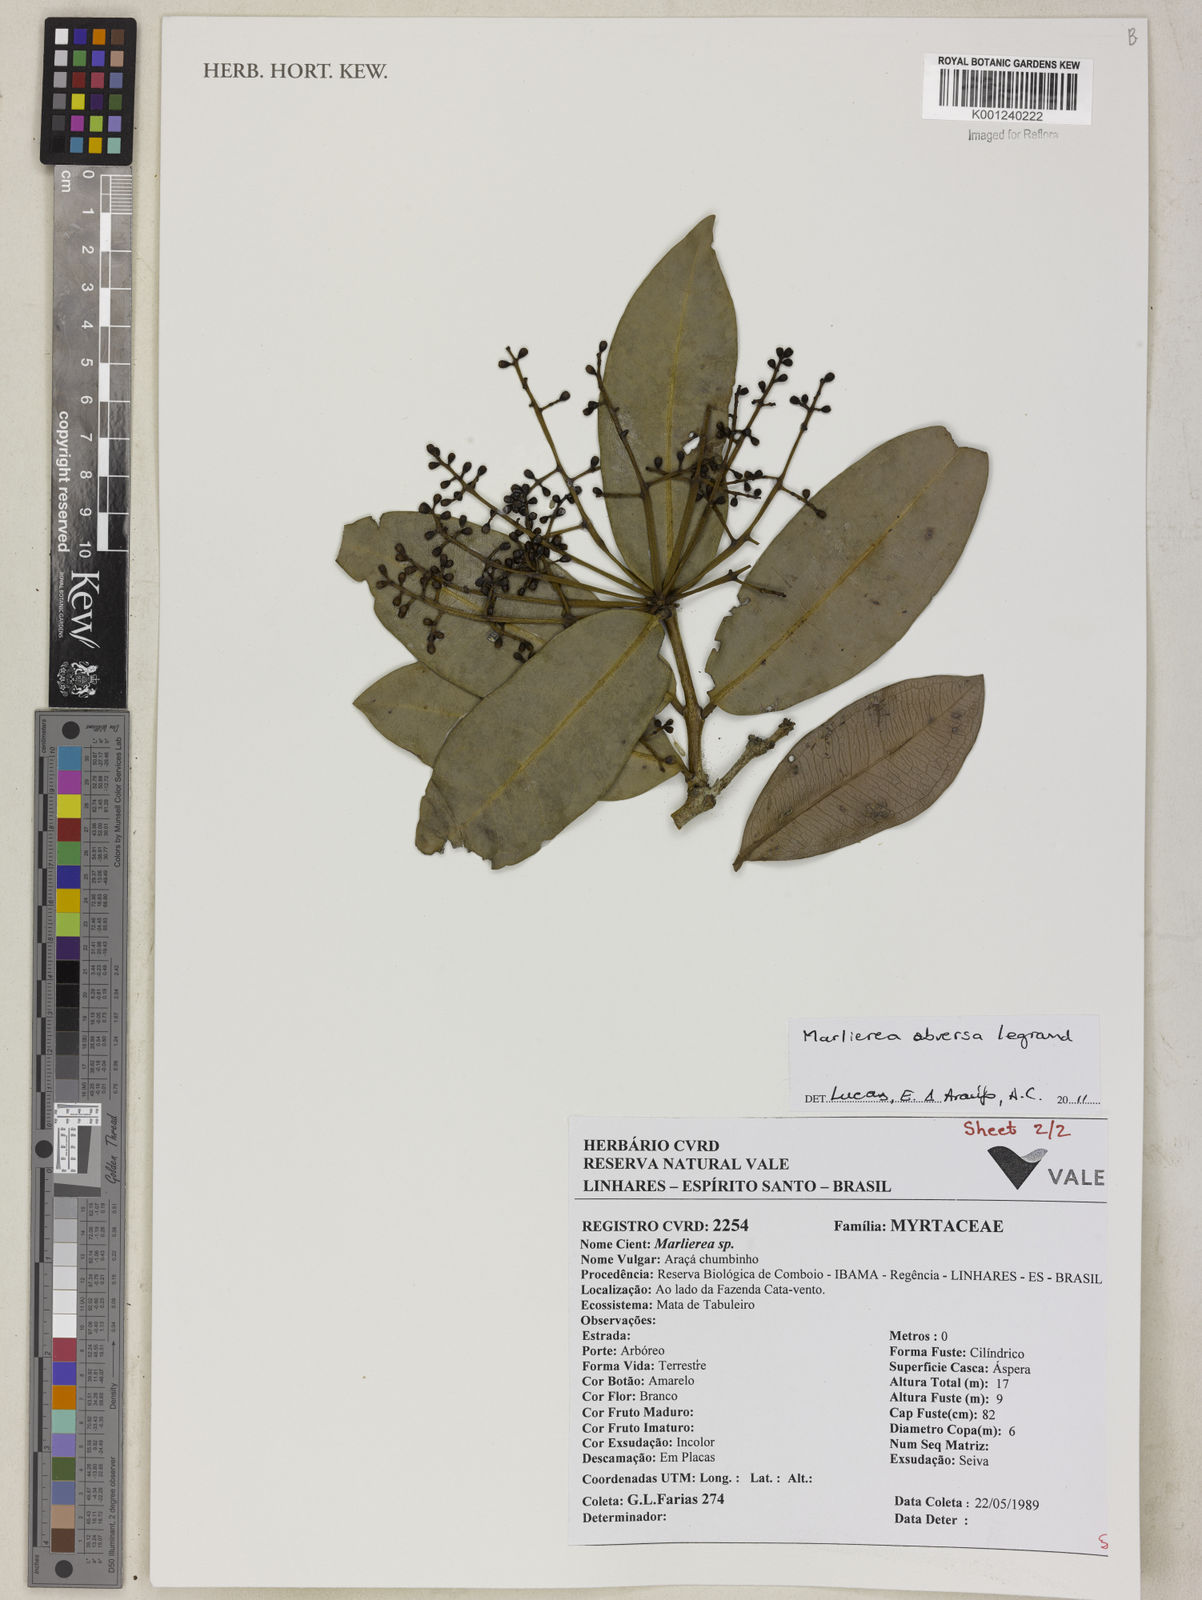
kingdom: Plantae
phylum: Tracheophyta
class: Magnoliopsida
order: Myrtales
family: Myrtaceae
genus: Myrcia
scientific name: Myrcia riodocensis
